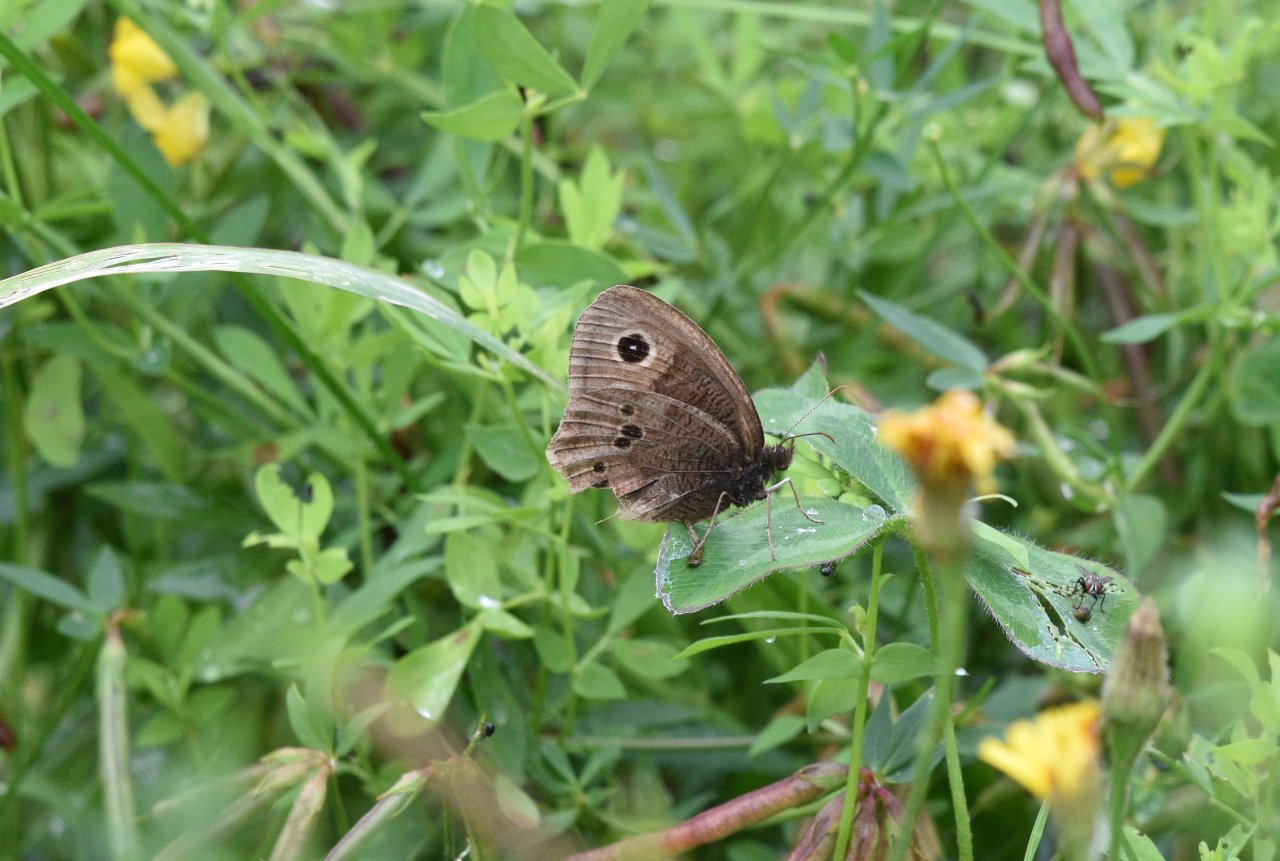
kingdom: Animalia
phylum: Arthropoda
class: Insecta
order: Lepidoptera
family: Nymphalidae
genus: Cercyonis
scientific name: Cercyonis pegala
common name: Common Wood-Nymph
